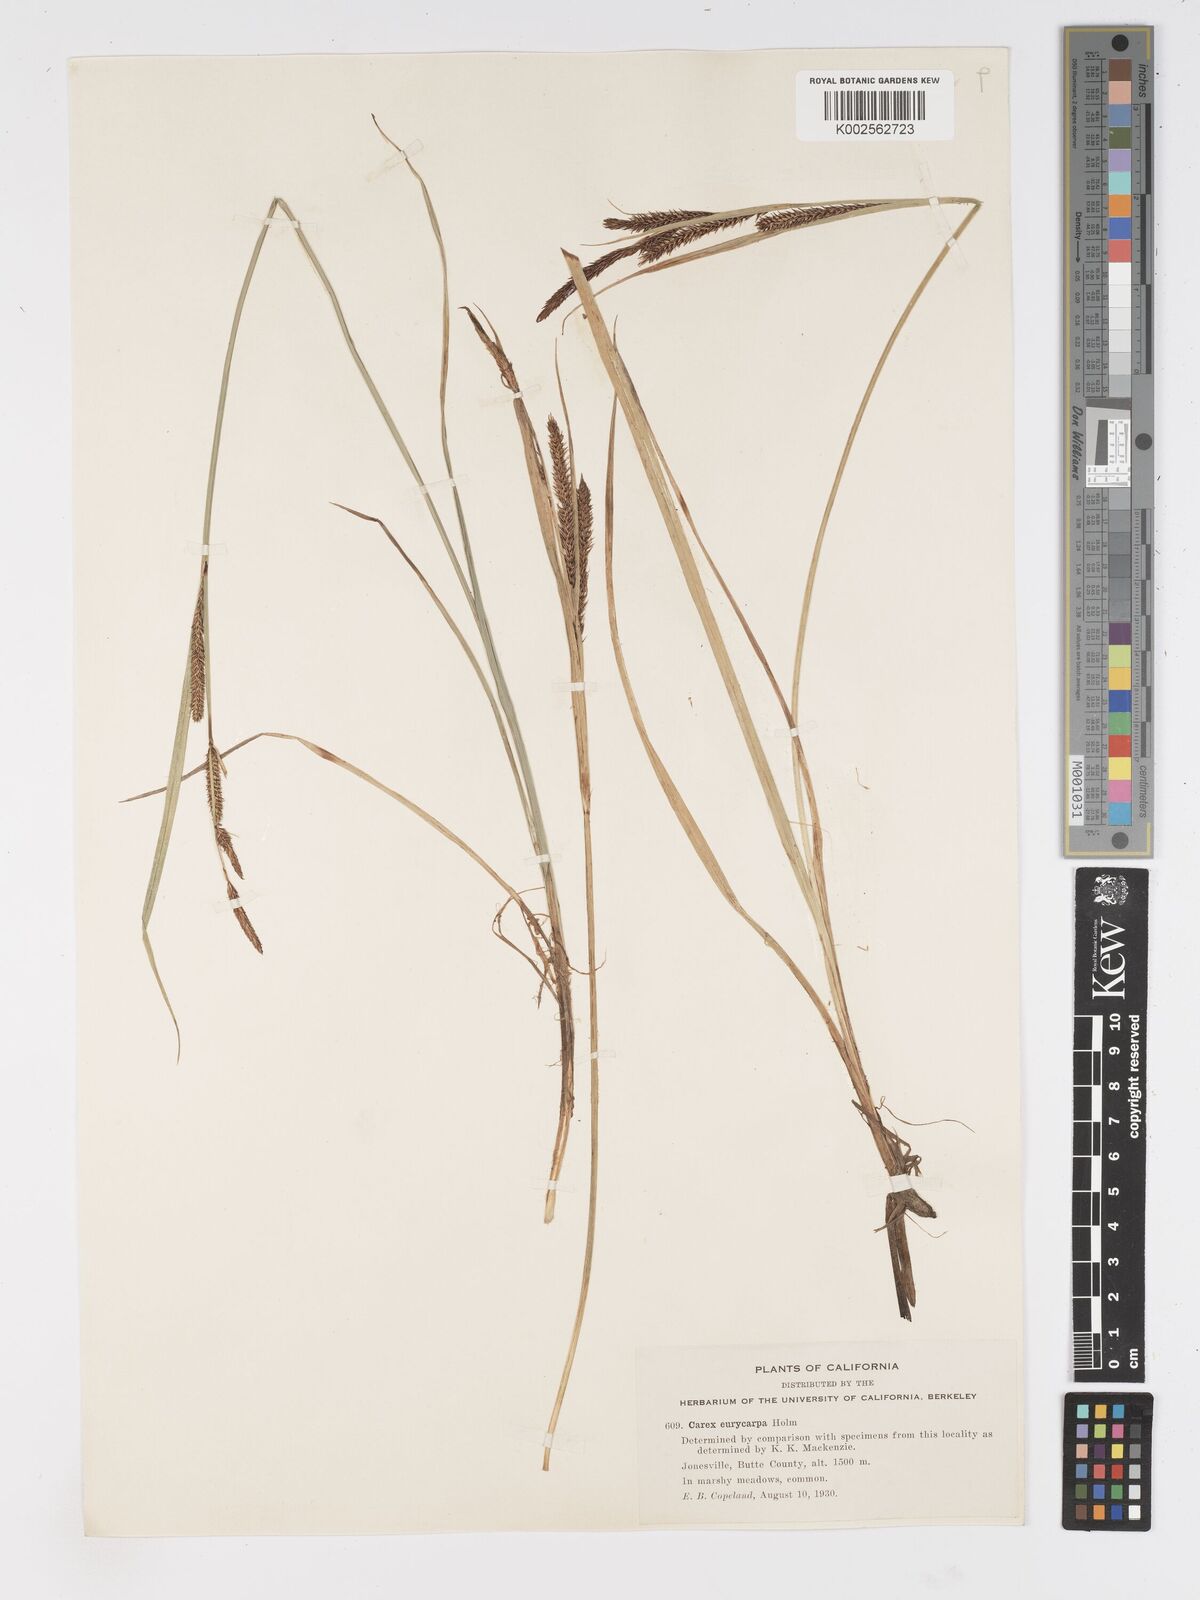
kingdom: Plantae
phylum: Tracheophyta
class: Liliopsida
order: Poales
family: Cyperaceae
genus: Carex
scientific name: Carex angustata
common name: Widefruit sedge
